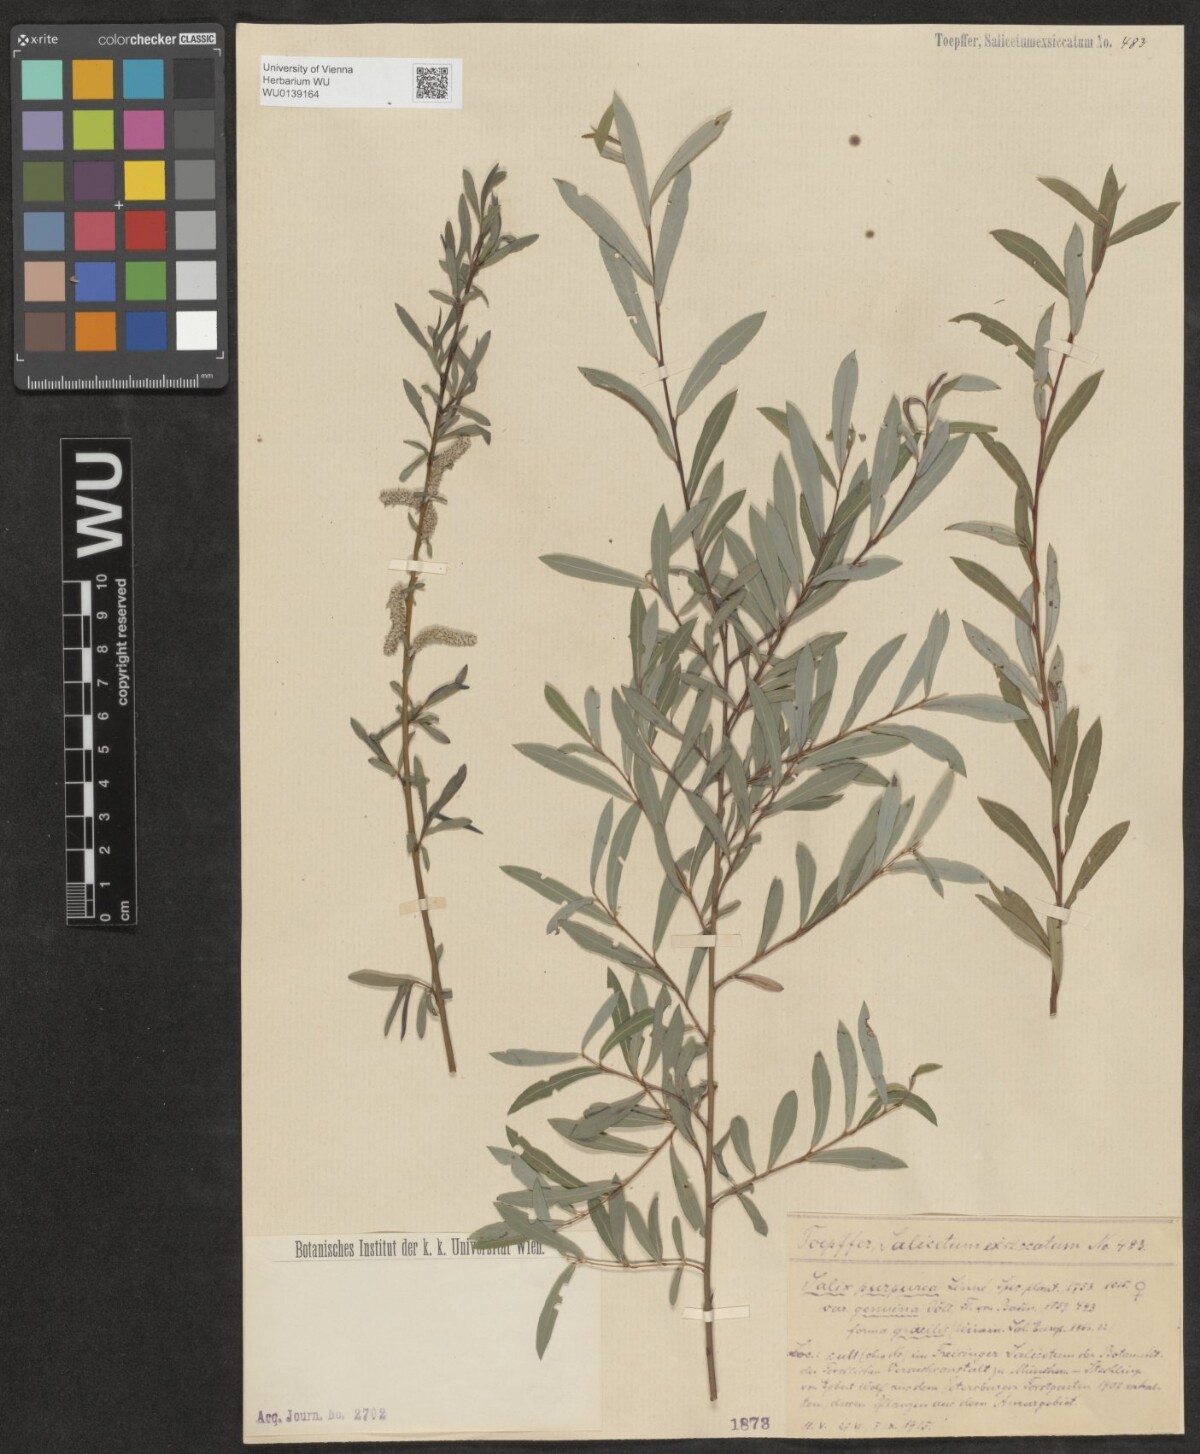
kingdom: Plantae
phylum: Tracheophyta
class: Magnoliopsida
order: Malpighiales
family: Salicaceae
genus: Salix
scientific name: Salix purpurea
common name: Purple willow
